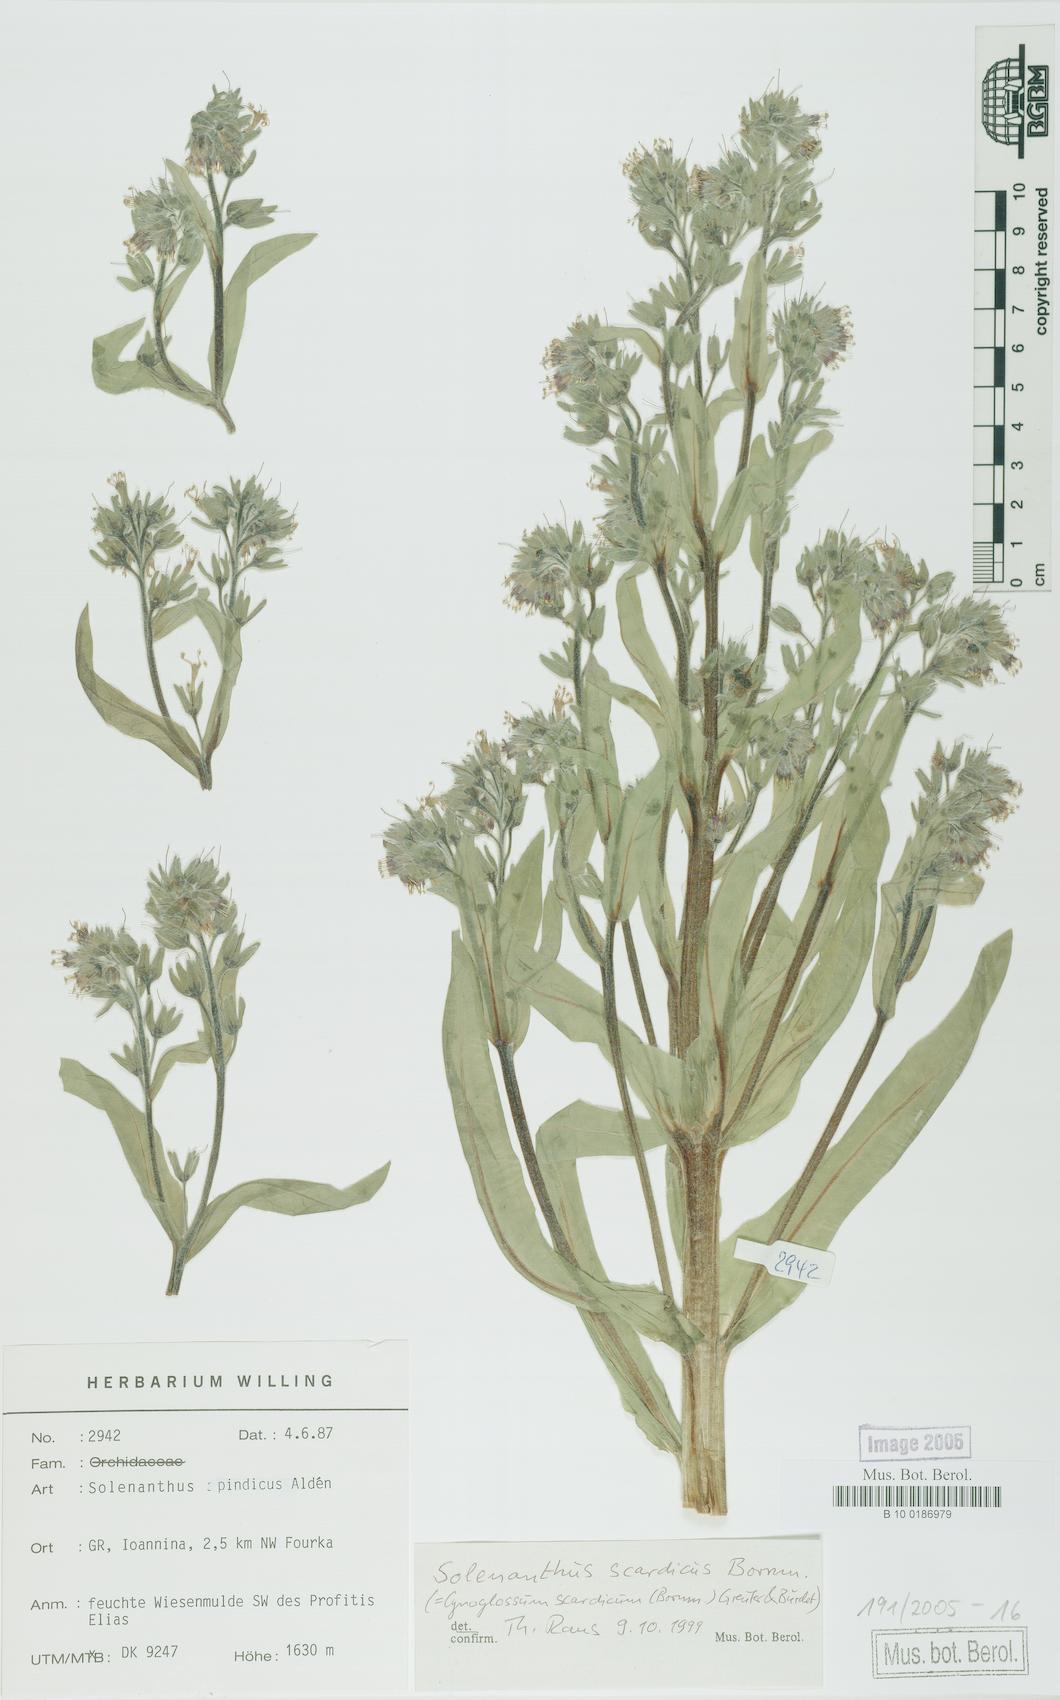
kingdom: Plantae
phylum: Tracheophyta
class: Magnoliopsida
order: Boraginales
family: Boraginaceae
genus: Solenanthus
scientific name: Solenanthus scardicus
